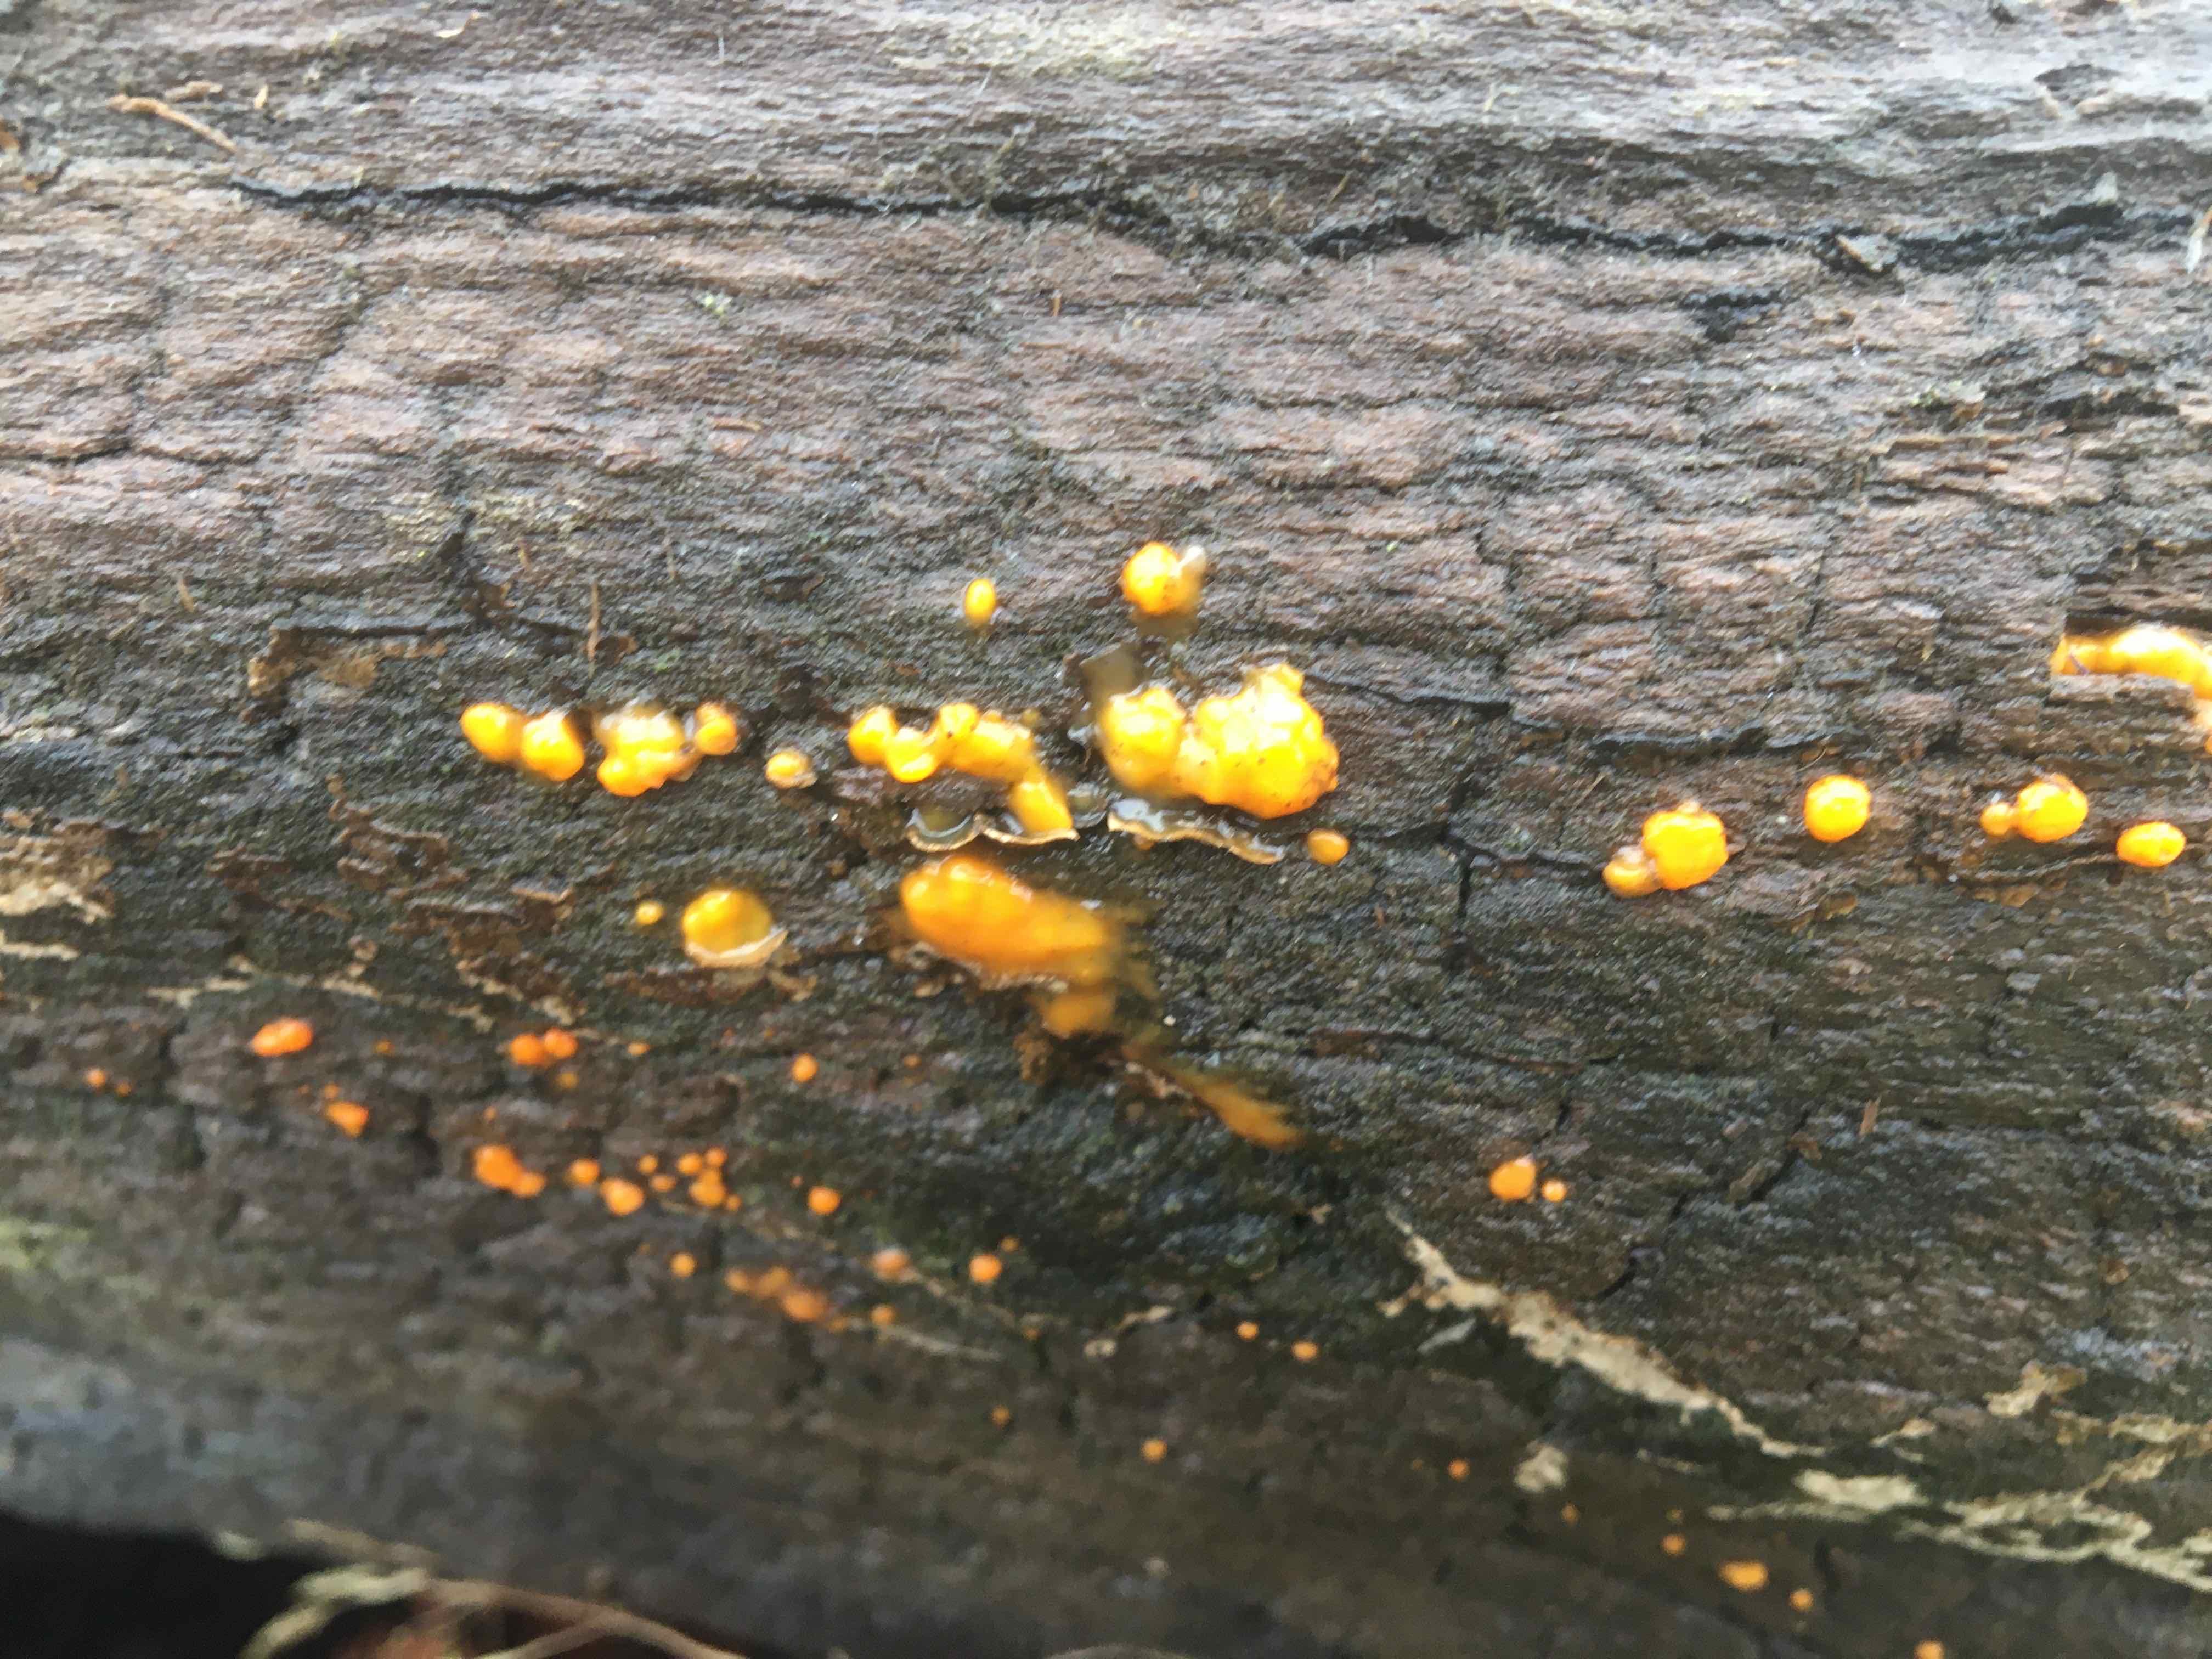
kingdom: Fungi
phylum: Basidiomycota
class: Dacrymycetes
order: Dacrymycetales
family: Dacrymycetaceae
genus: Dacrymyces
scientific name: Dacrymyces stillatus
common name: almindelig tåresvamp
